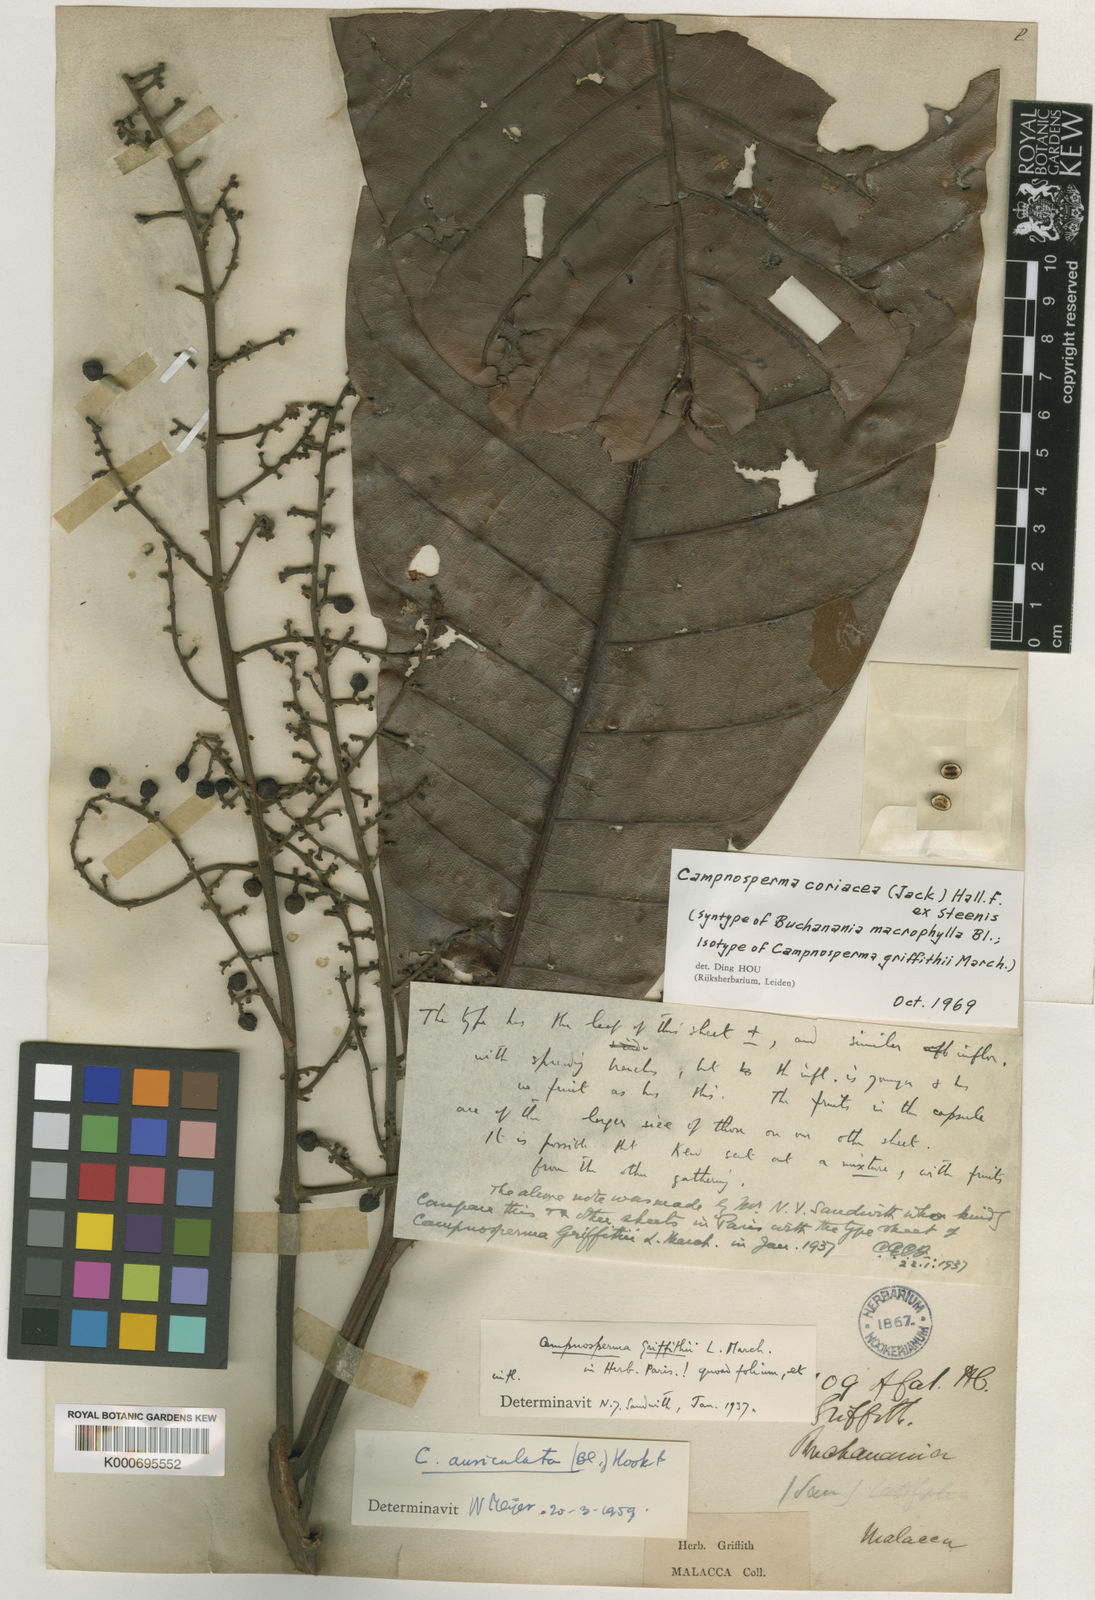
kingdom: Plantae
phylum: Tracheophyta
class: Magnoliopsida
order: Sapindales
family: Anacardiaceae
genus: Campnosperma
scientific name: Campnosperma auriculatum
